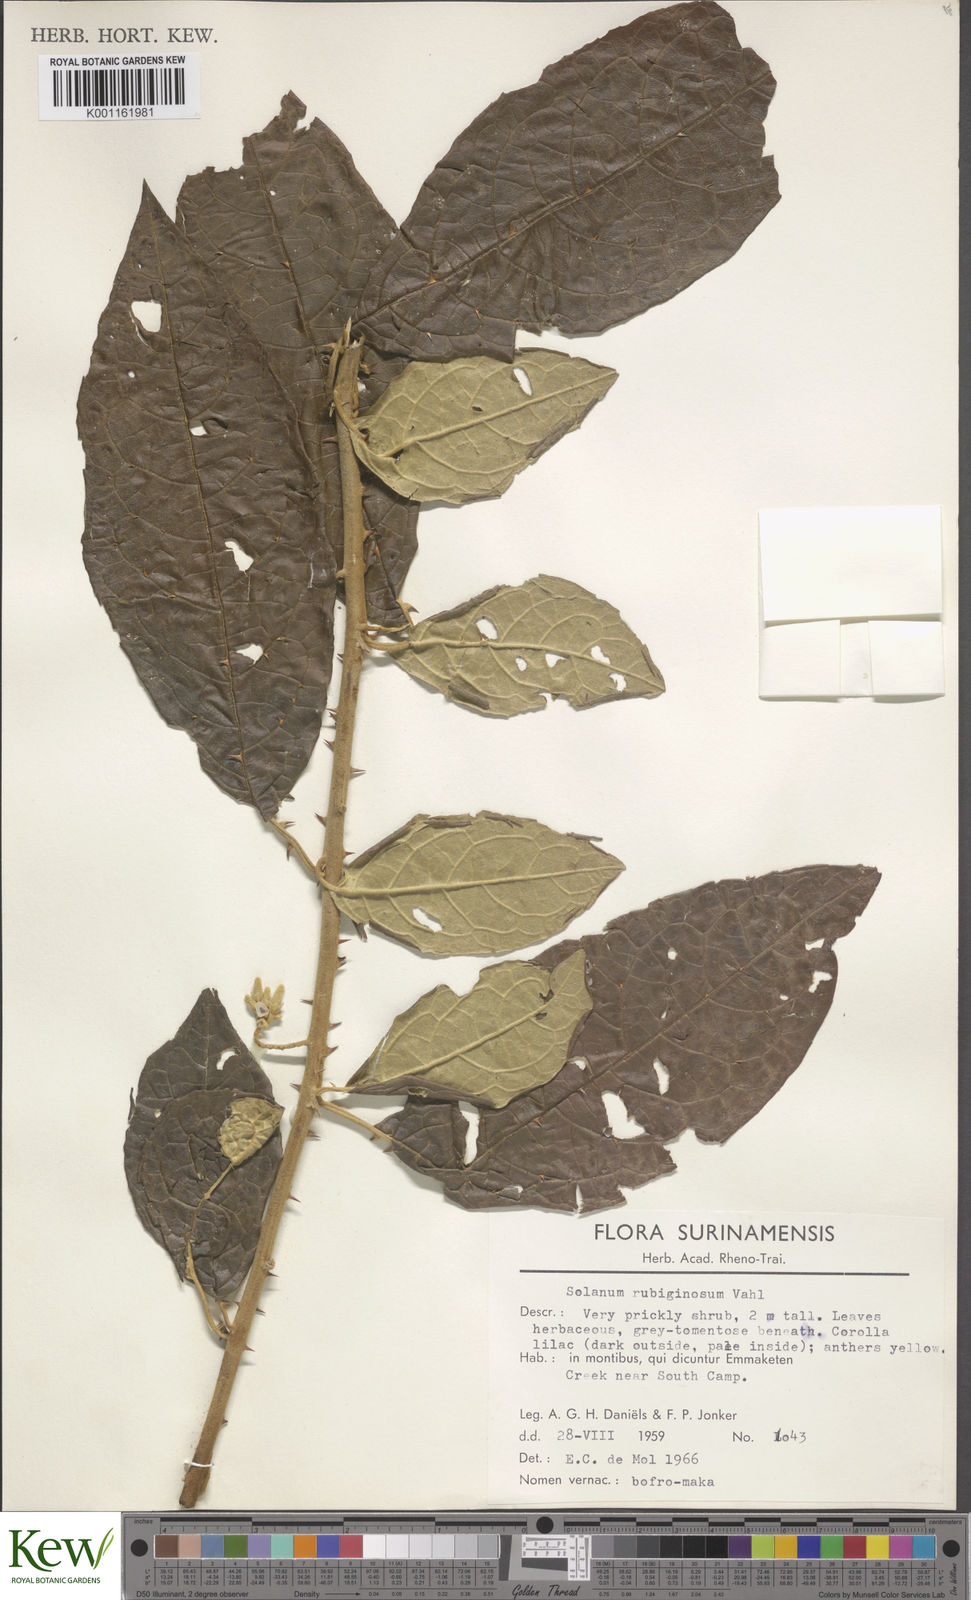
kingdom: Plantae
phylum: Tracheophyta
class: Magnoliopsida
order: Solanales
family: Solanaceae
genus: Solanum
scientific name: Solanum rubiginosum
